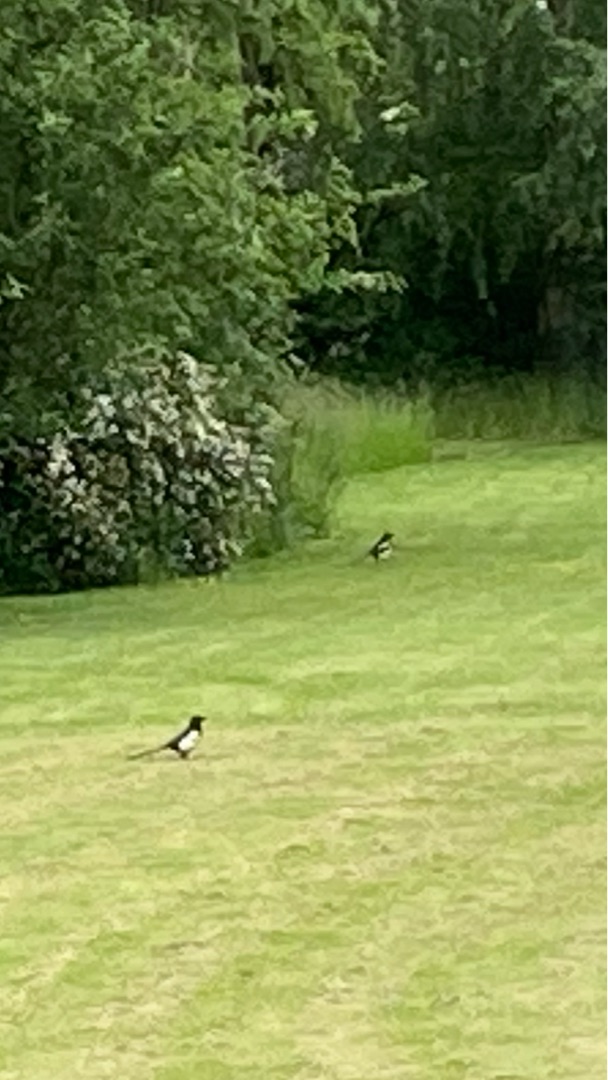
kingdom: Animalia
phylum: Chordata
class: Aves
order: Passeriformes
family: Corvidae
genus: Pica
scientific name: Pica pica
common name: Husskade
